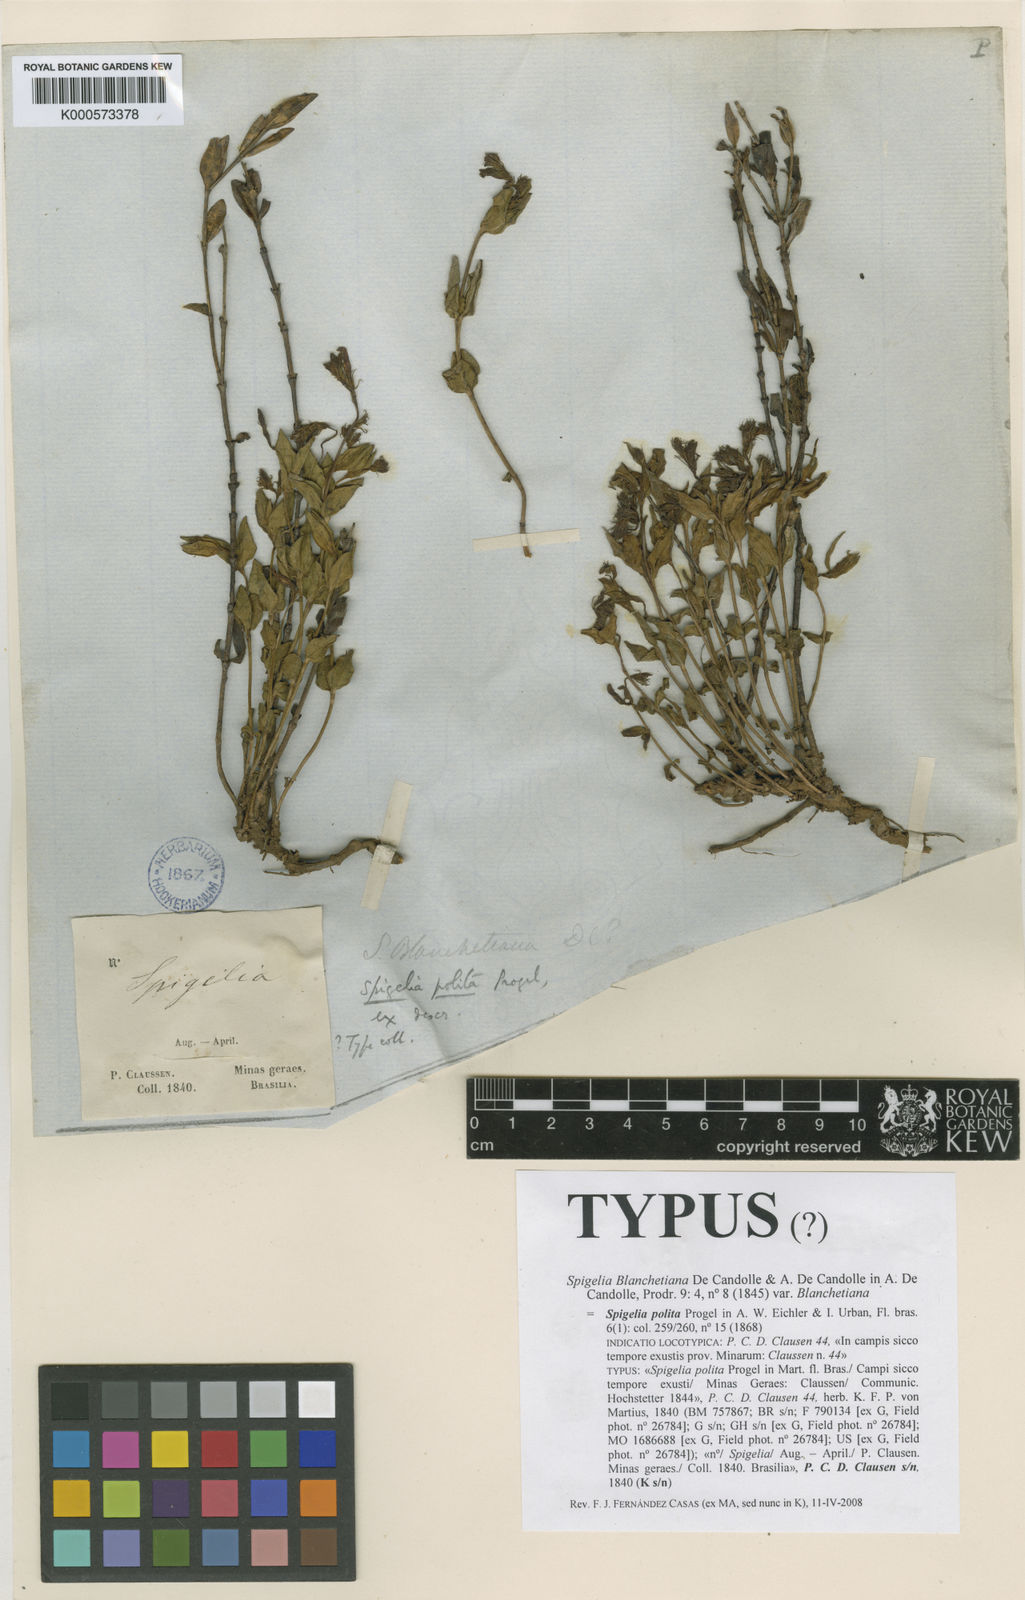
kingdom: Plantae
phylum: Tracheophyta
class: Magnoliopsida
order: Gentianales
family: Loganiaceae
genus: Spigelia
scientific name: Spigelia blanchetiana
